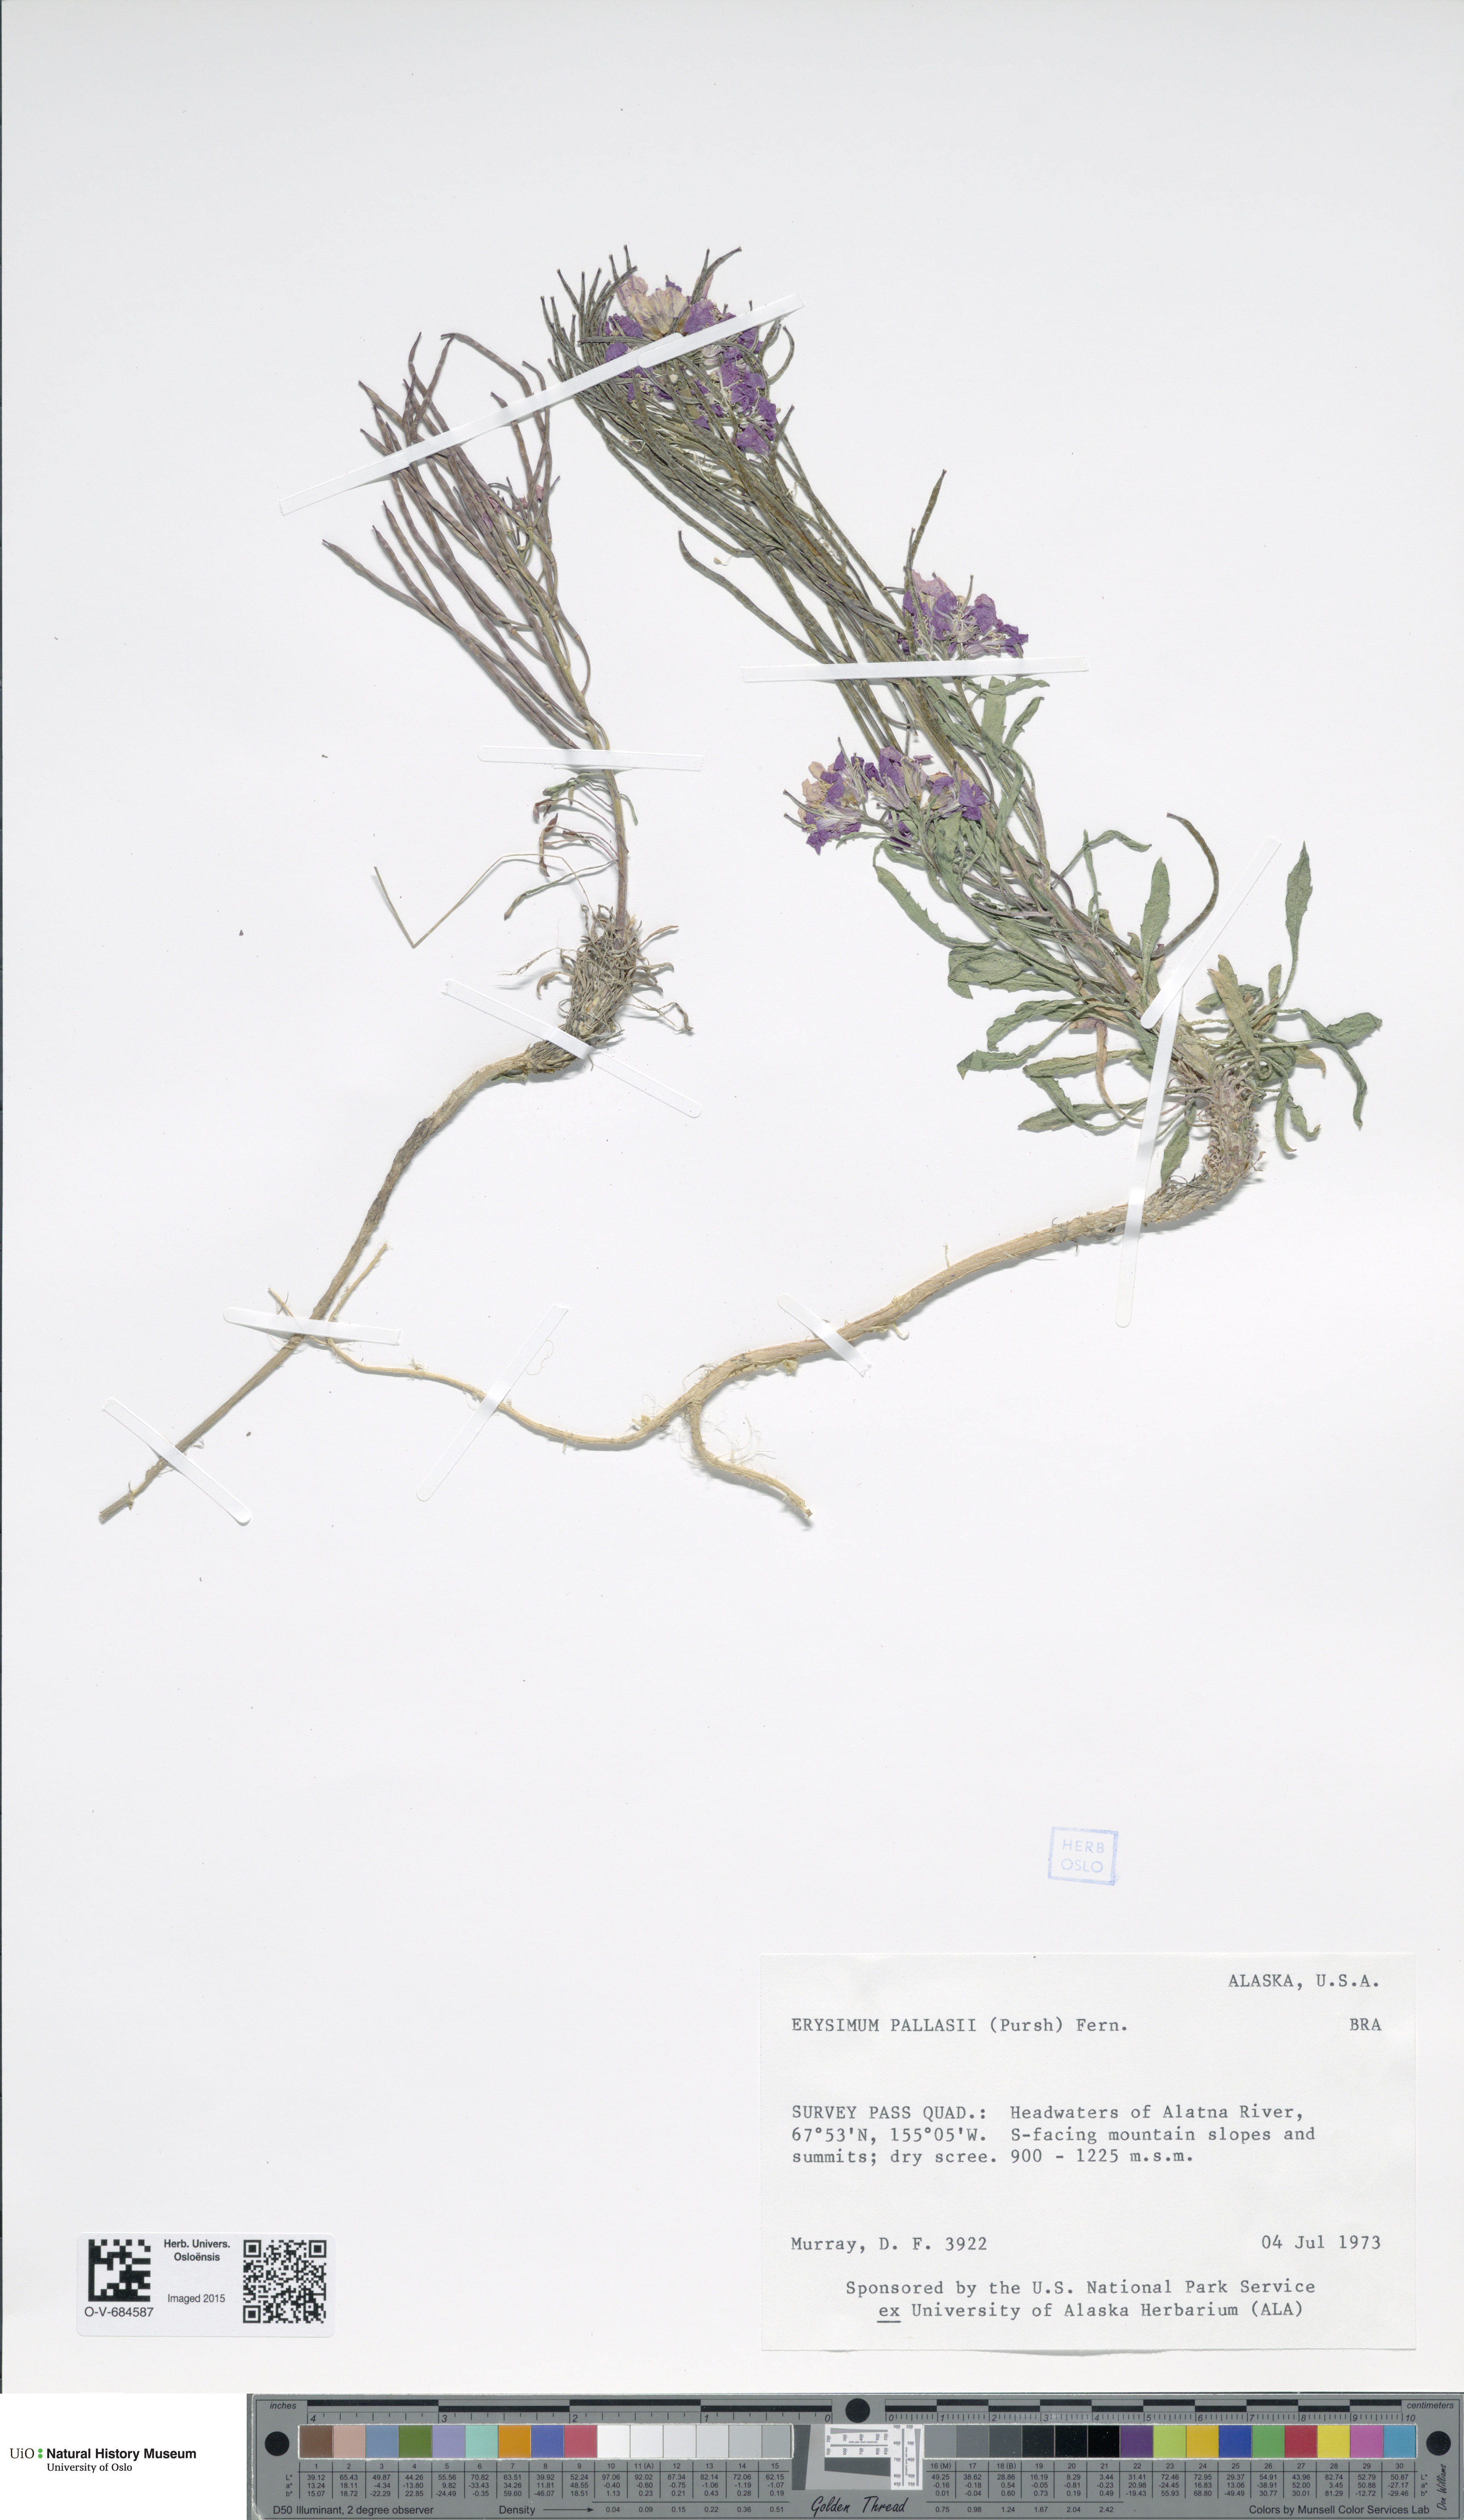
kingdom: Plantae
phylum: Tracheophyta
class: Magnoliopsida
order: Brassicales
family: Brassicaceae
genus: Erysimum
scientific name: Erysimum pallasii
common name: Pallas' wallflower
